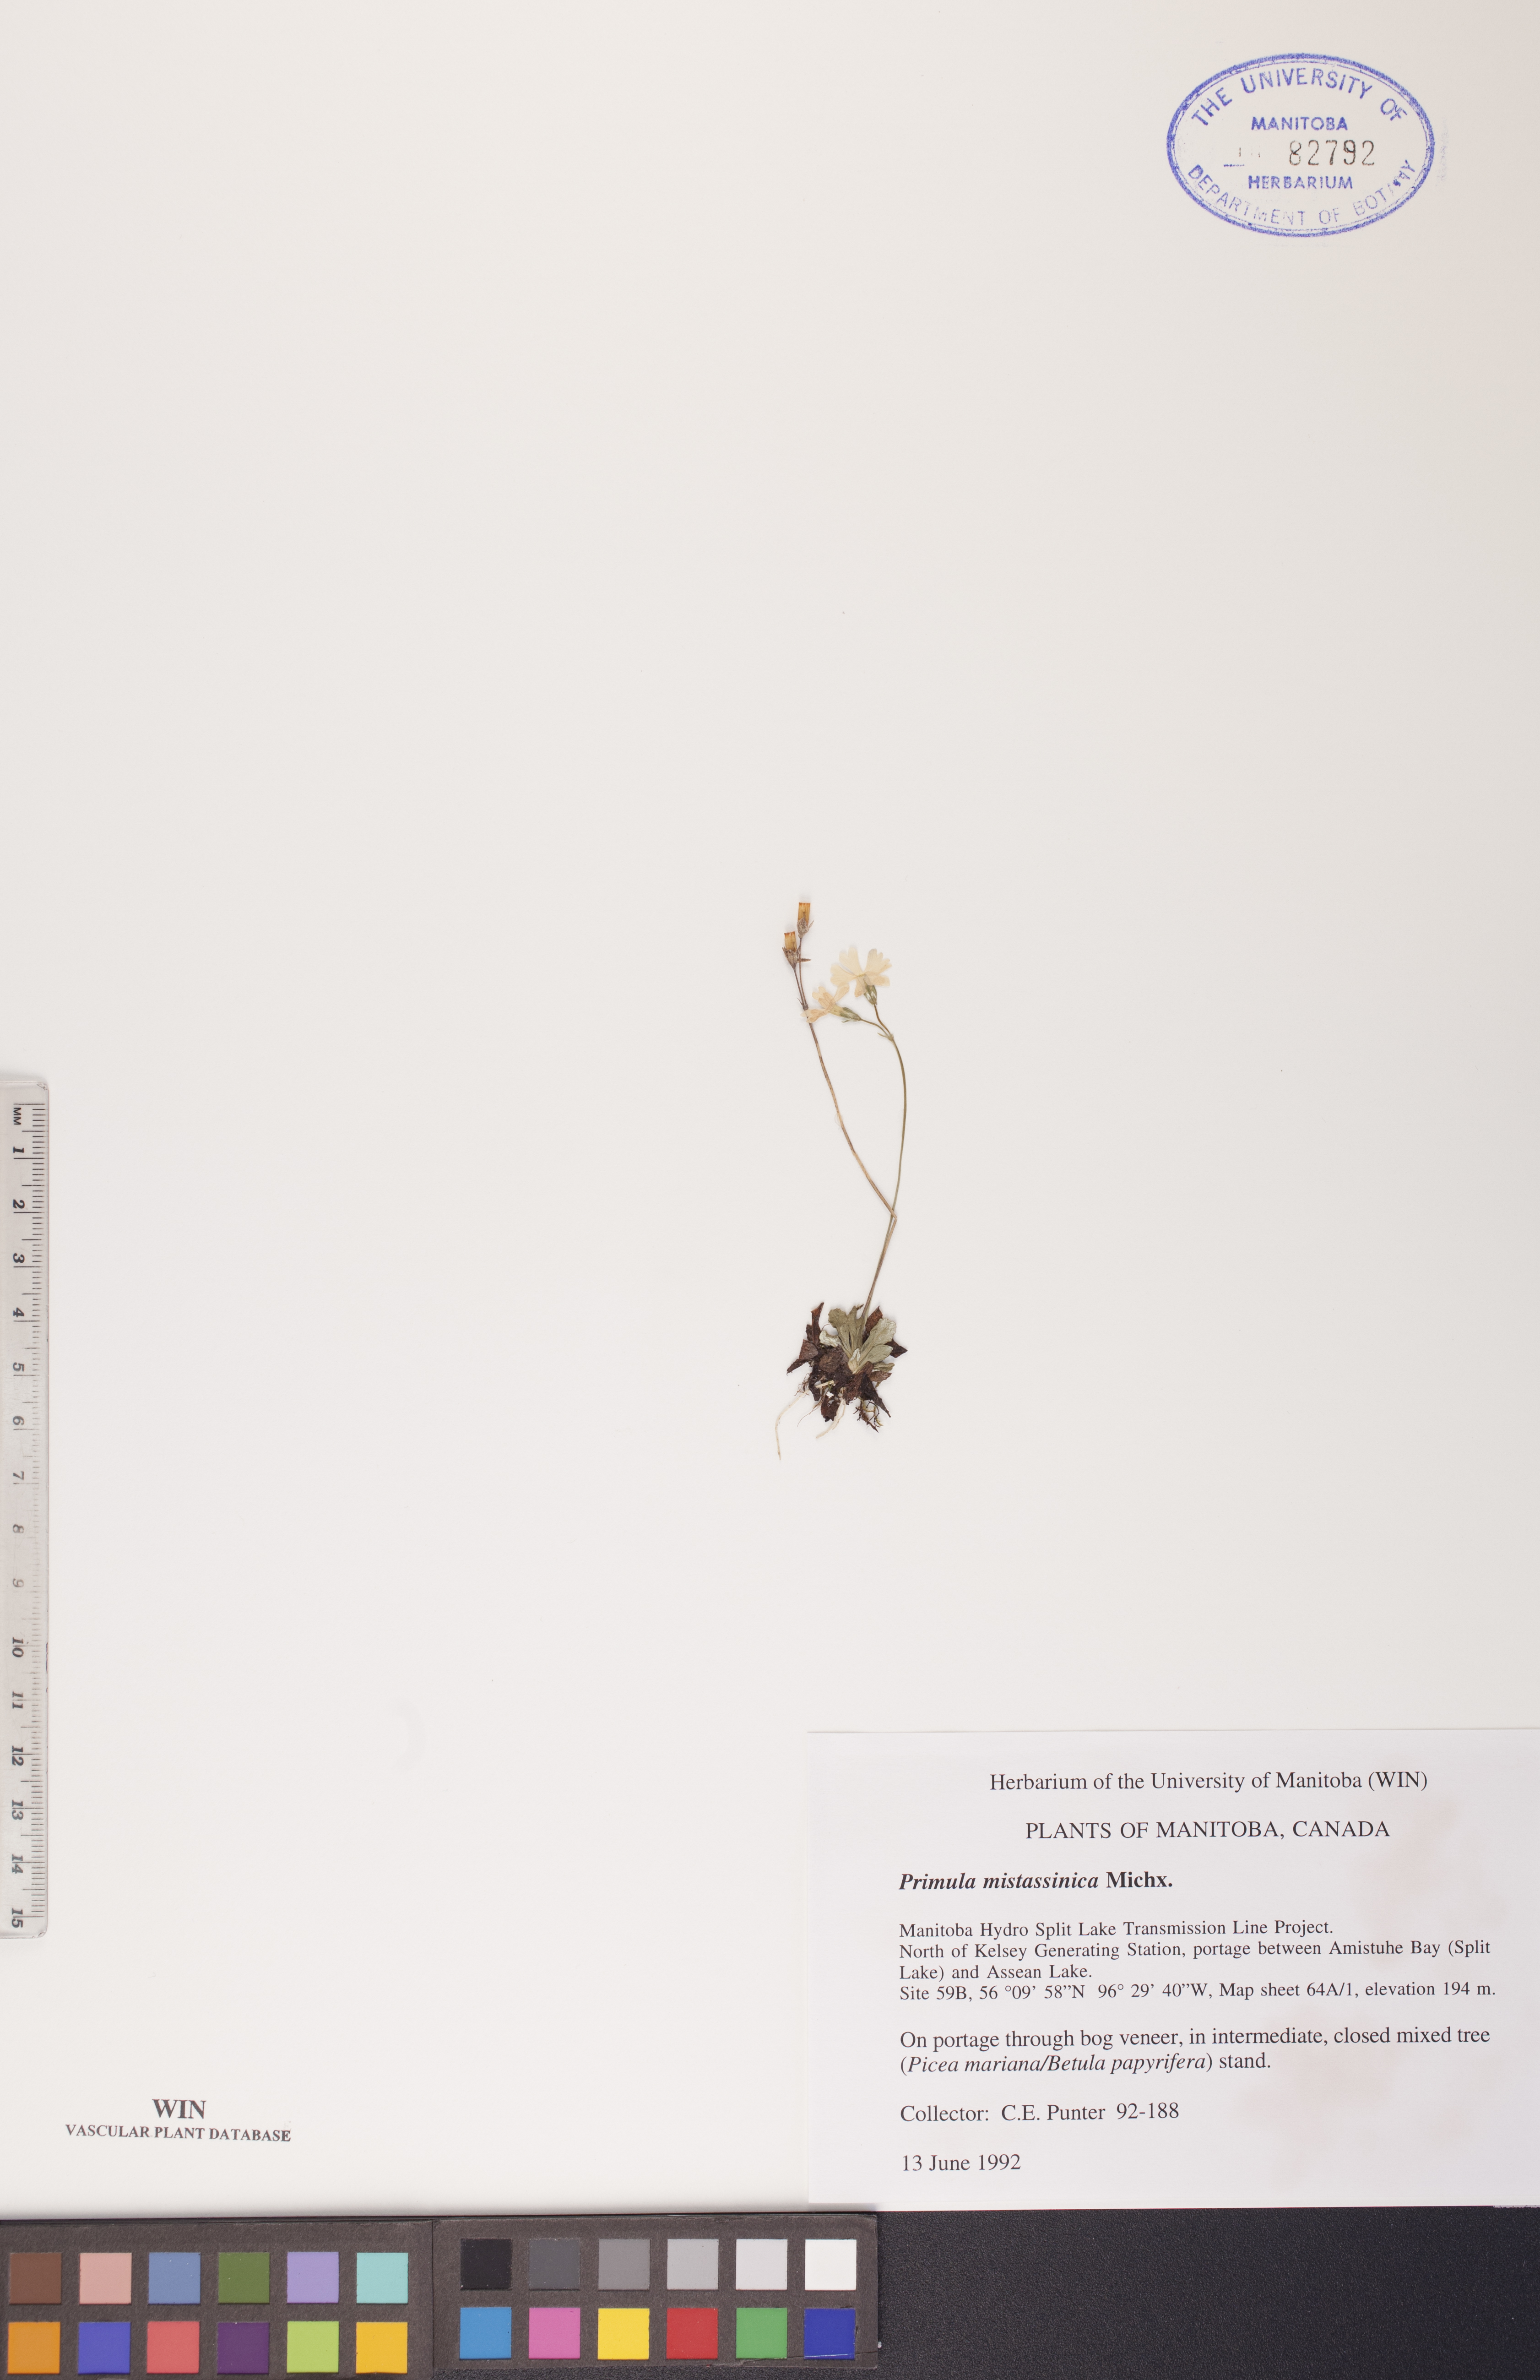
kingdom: Plantae
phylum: Tracheophyta
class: Magnoliopsida
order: Ericales
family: Primulaceae
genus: Primula
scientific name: Primula mistassinica
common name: Bird's-eye primrose
